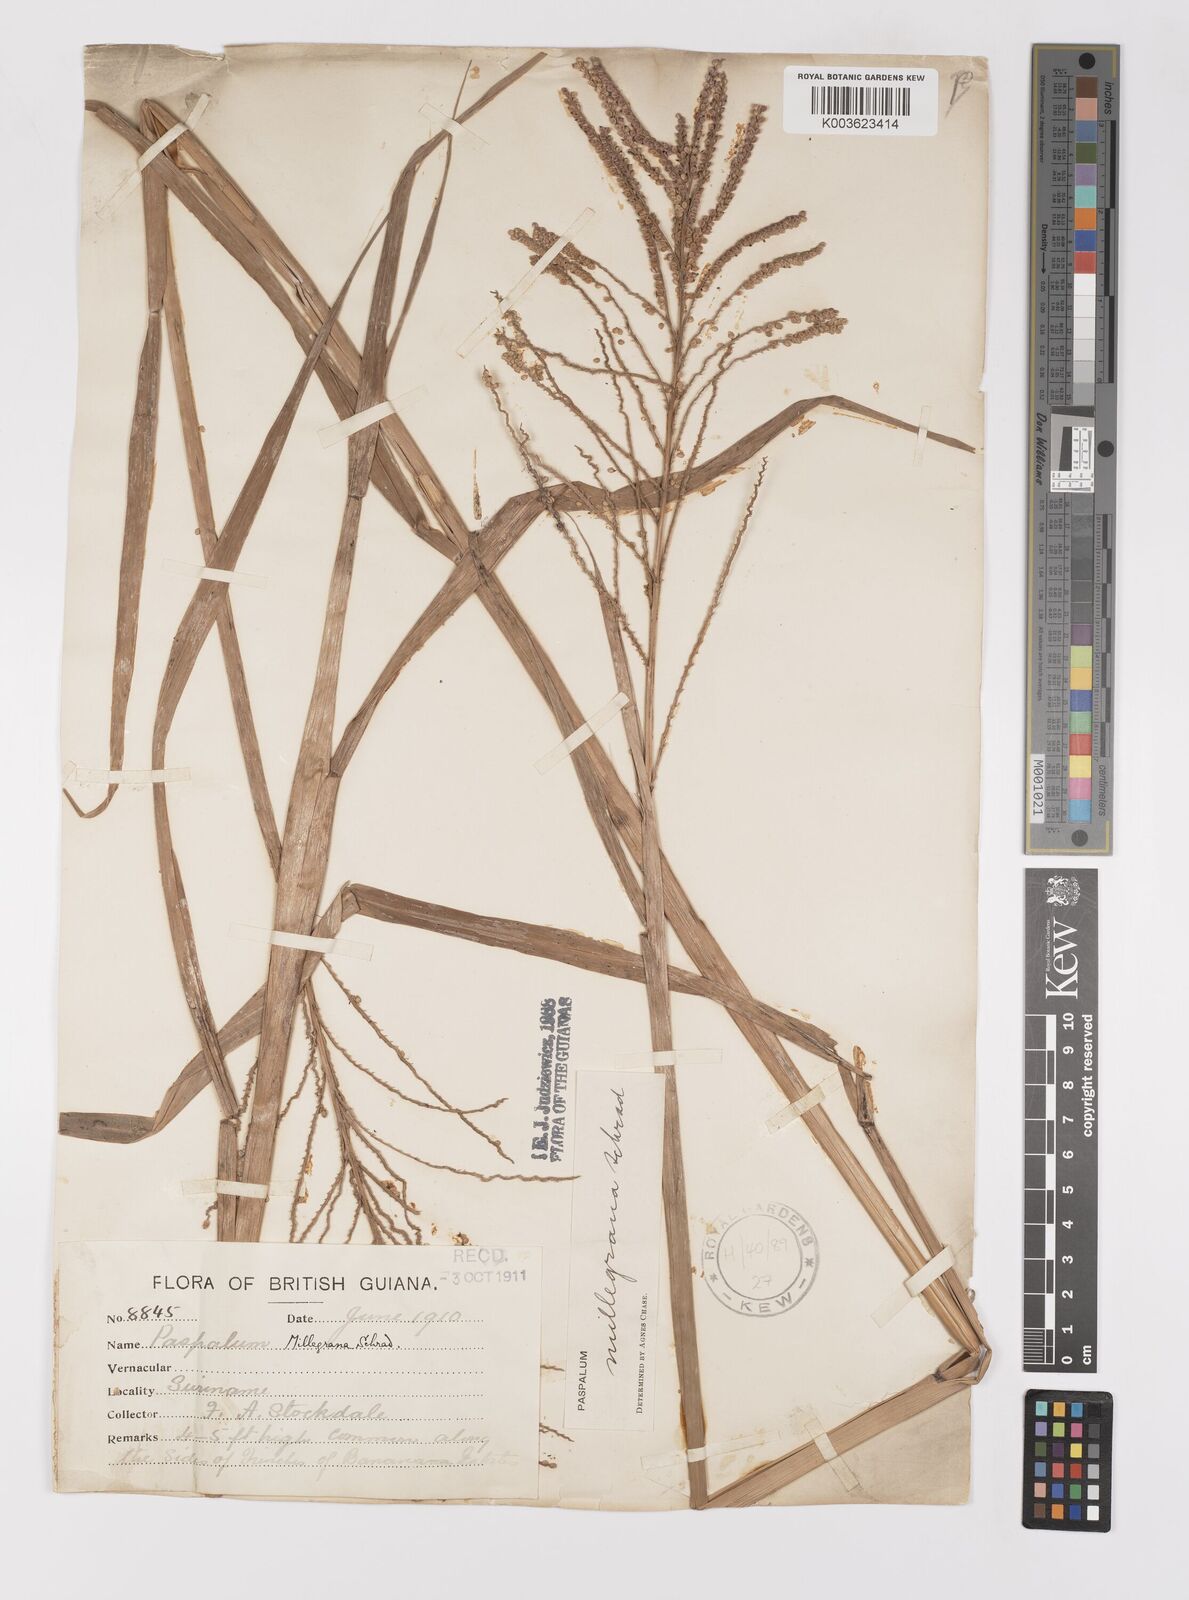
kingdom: Plantae
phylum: Tracheophyta
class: Liliopsida
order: Poales
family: Poaceae
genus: Paspalum
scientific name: Paspalum millegranum
